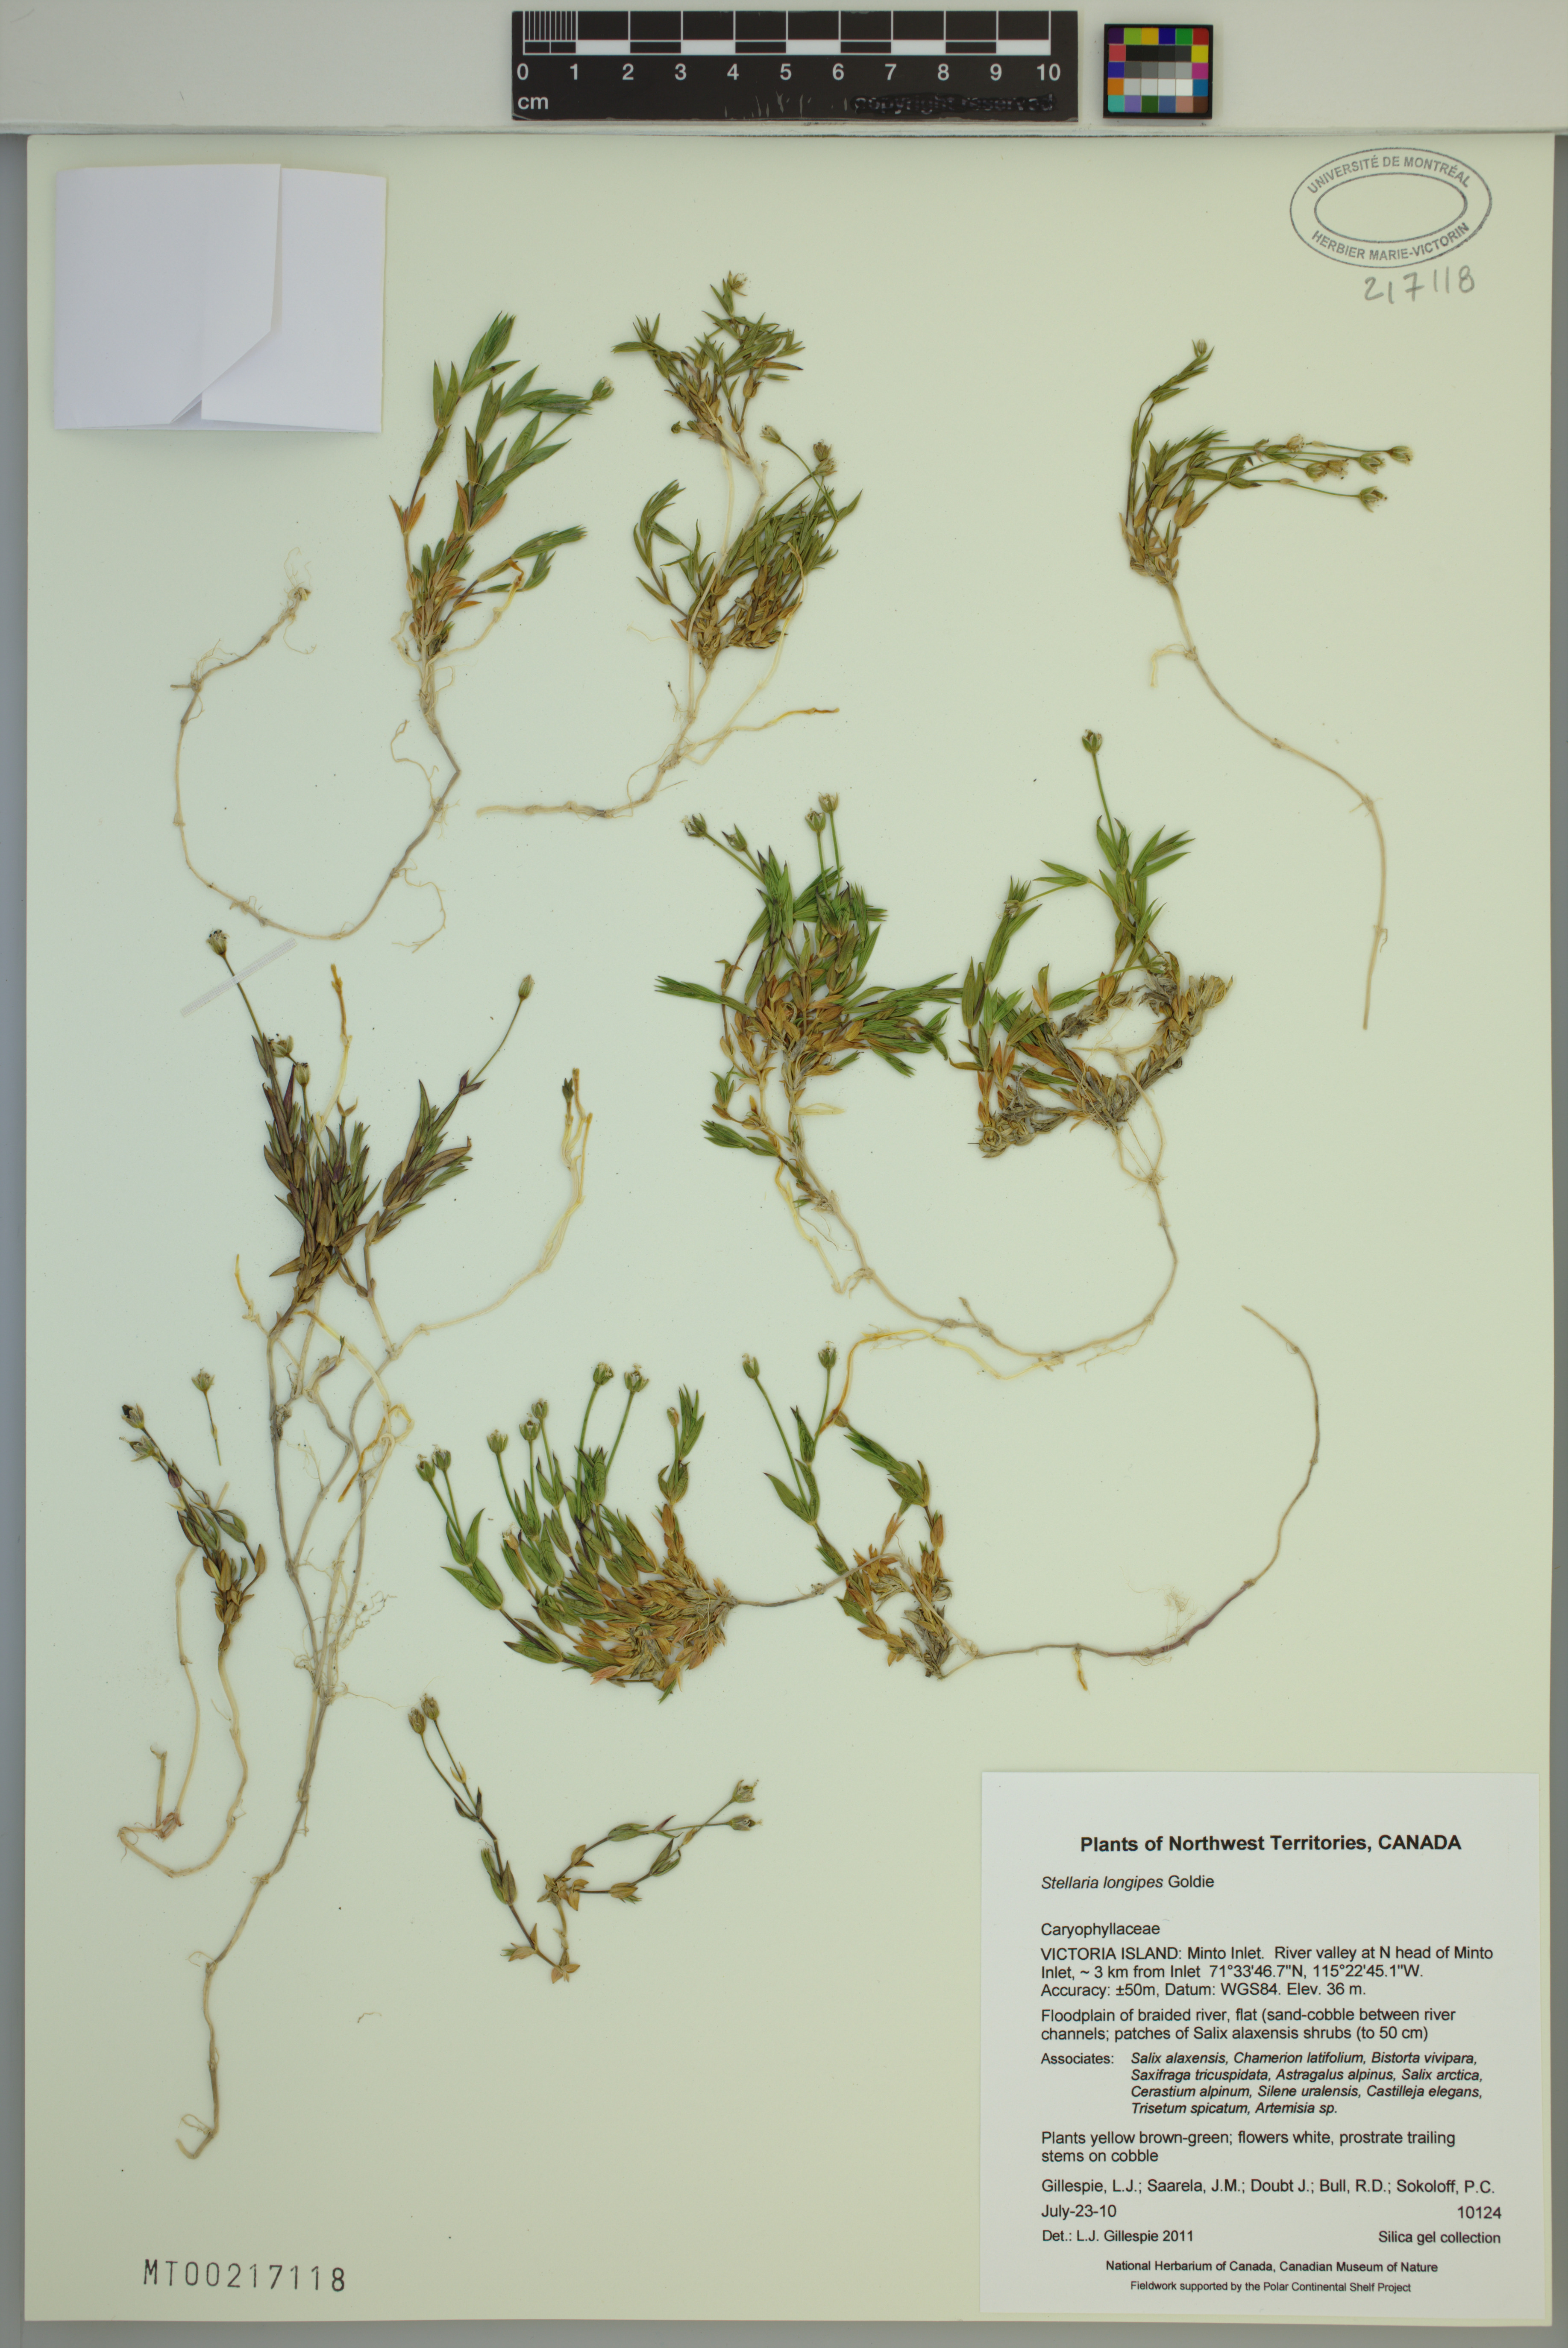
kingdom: Plantae
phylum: Tracheophyta
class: Magnoliopsida
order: Caryophyllales
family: Caryophyllaceae
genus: Stellaria
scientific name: Stellaria longipes
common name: Goldie's starwort
